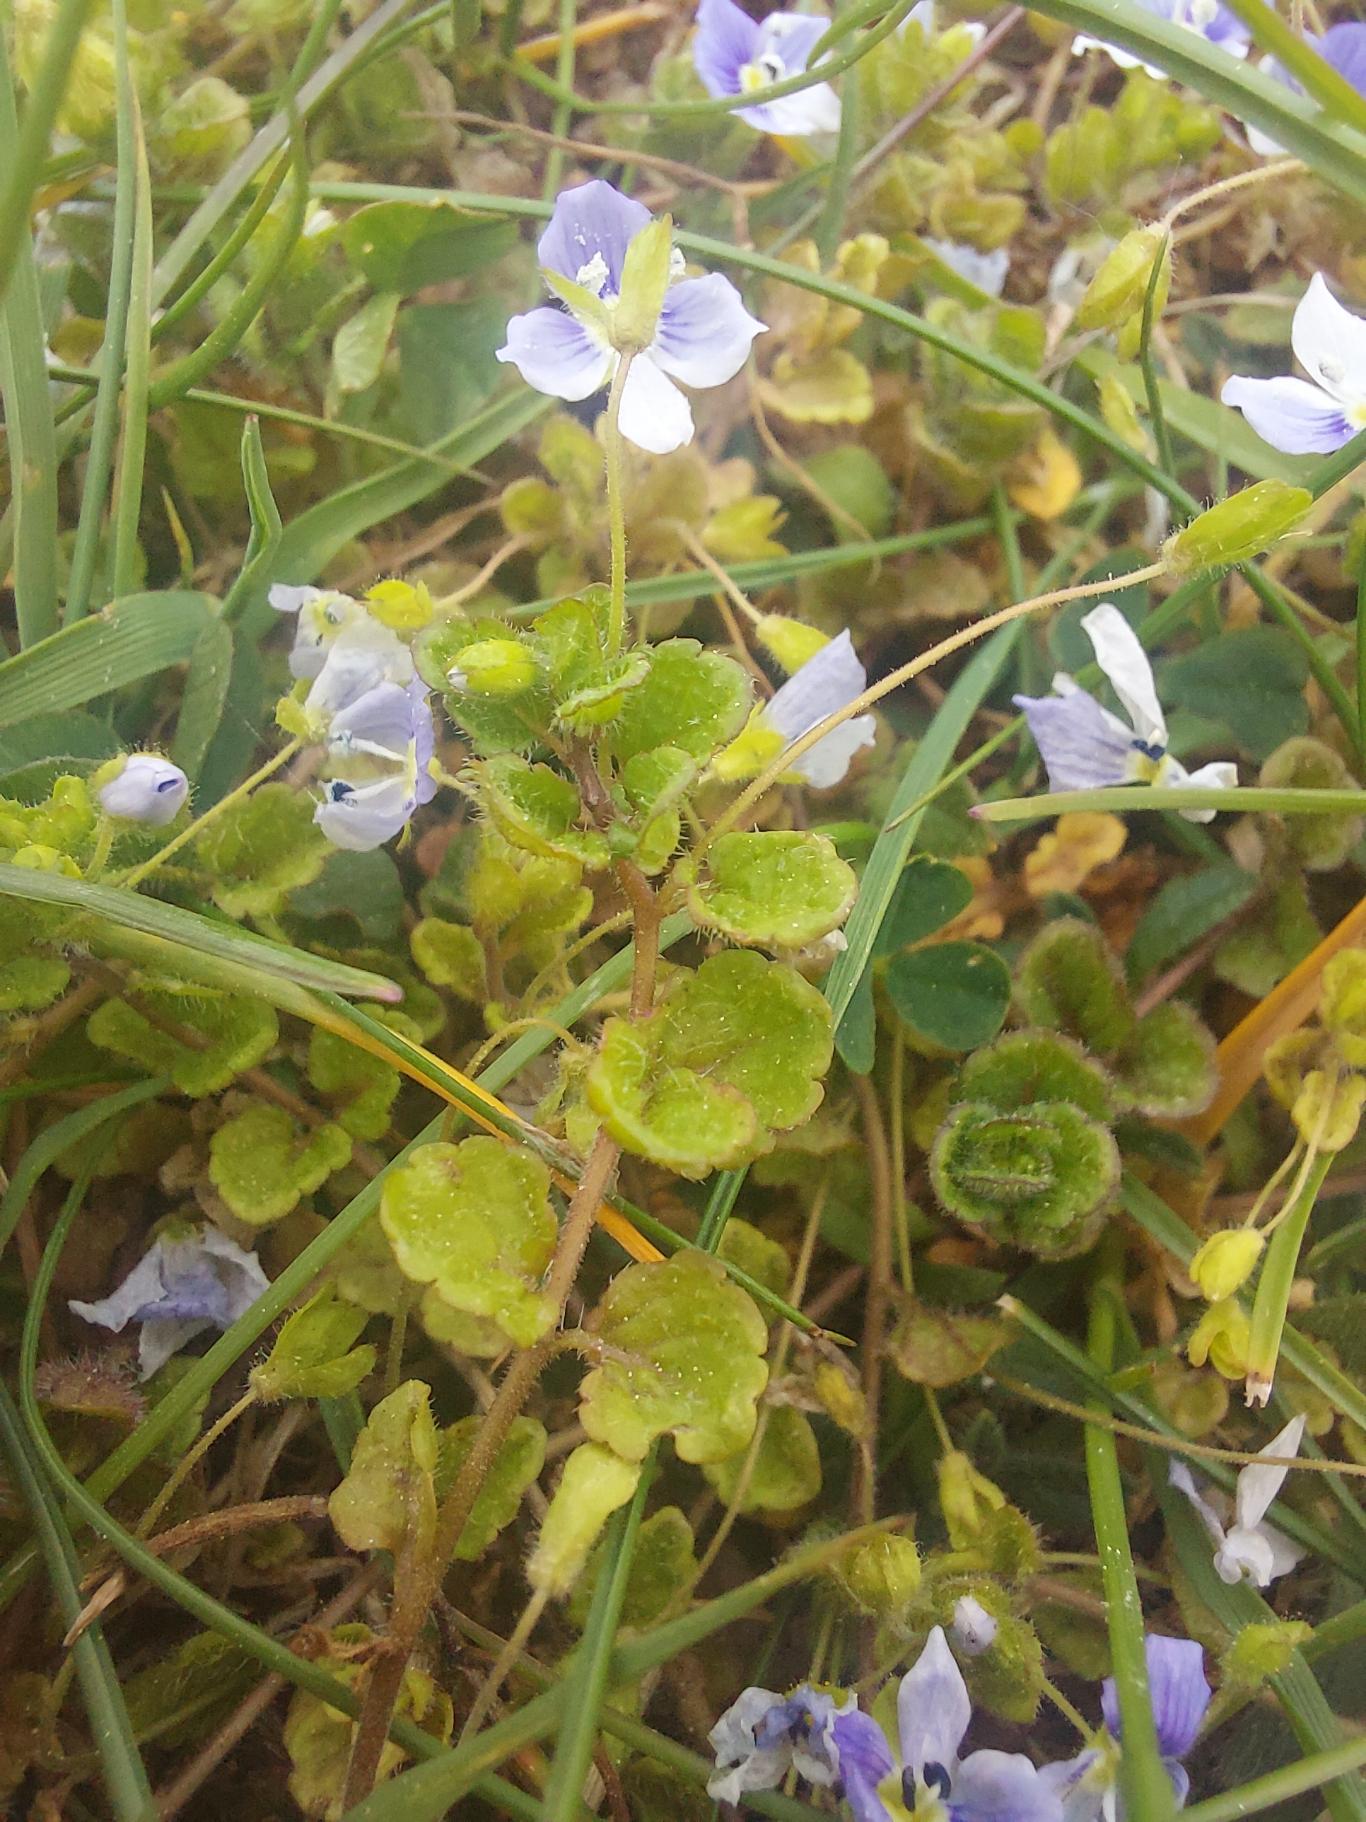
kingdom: Plantae
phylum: Tracheophyta
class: Magnoliopsida
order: Lamiales
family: Plantaginaceae
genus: Veronica
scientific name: Veronica filiformis
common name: Tråd-ærenpris
